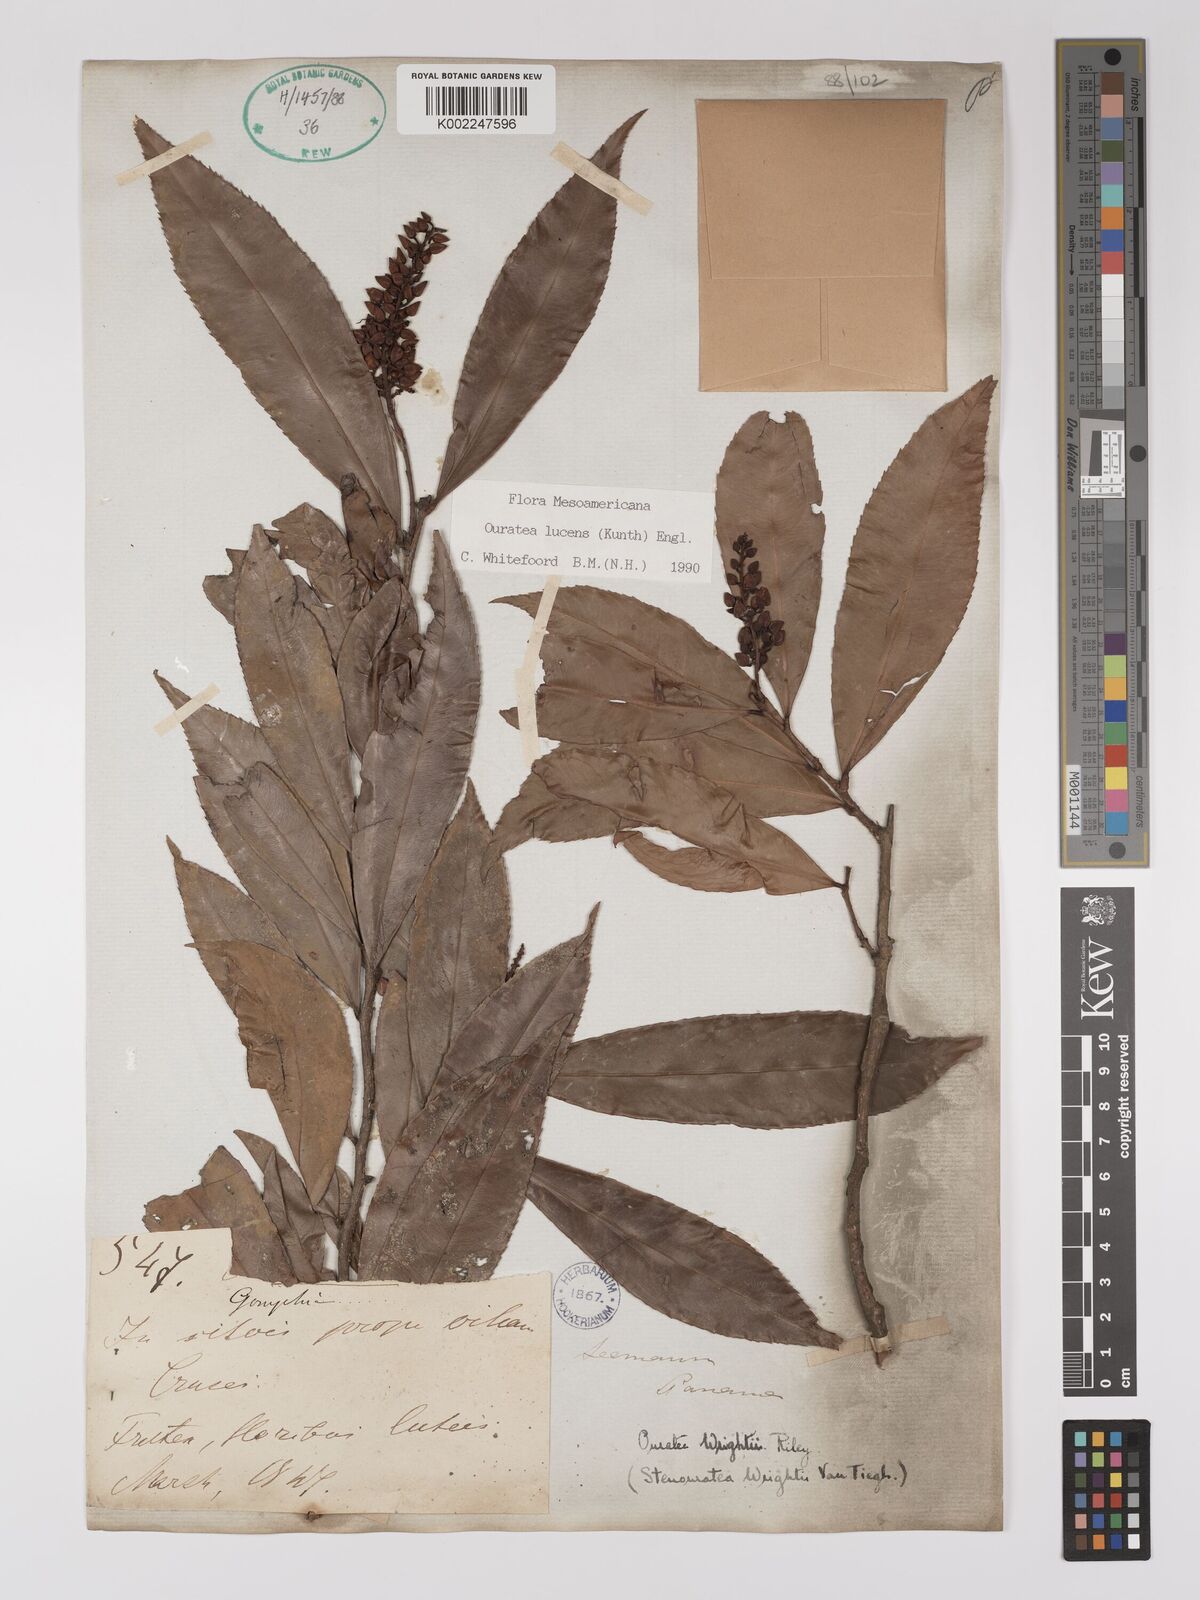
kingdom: Plantae
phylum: Tracheophyta
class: Magnoliopsida
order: Malpighiales
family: Ochnaceae
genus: Ouratea
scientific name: Ouratea lucens
